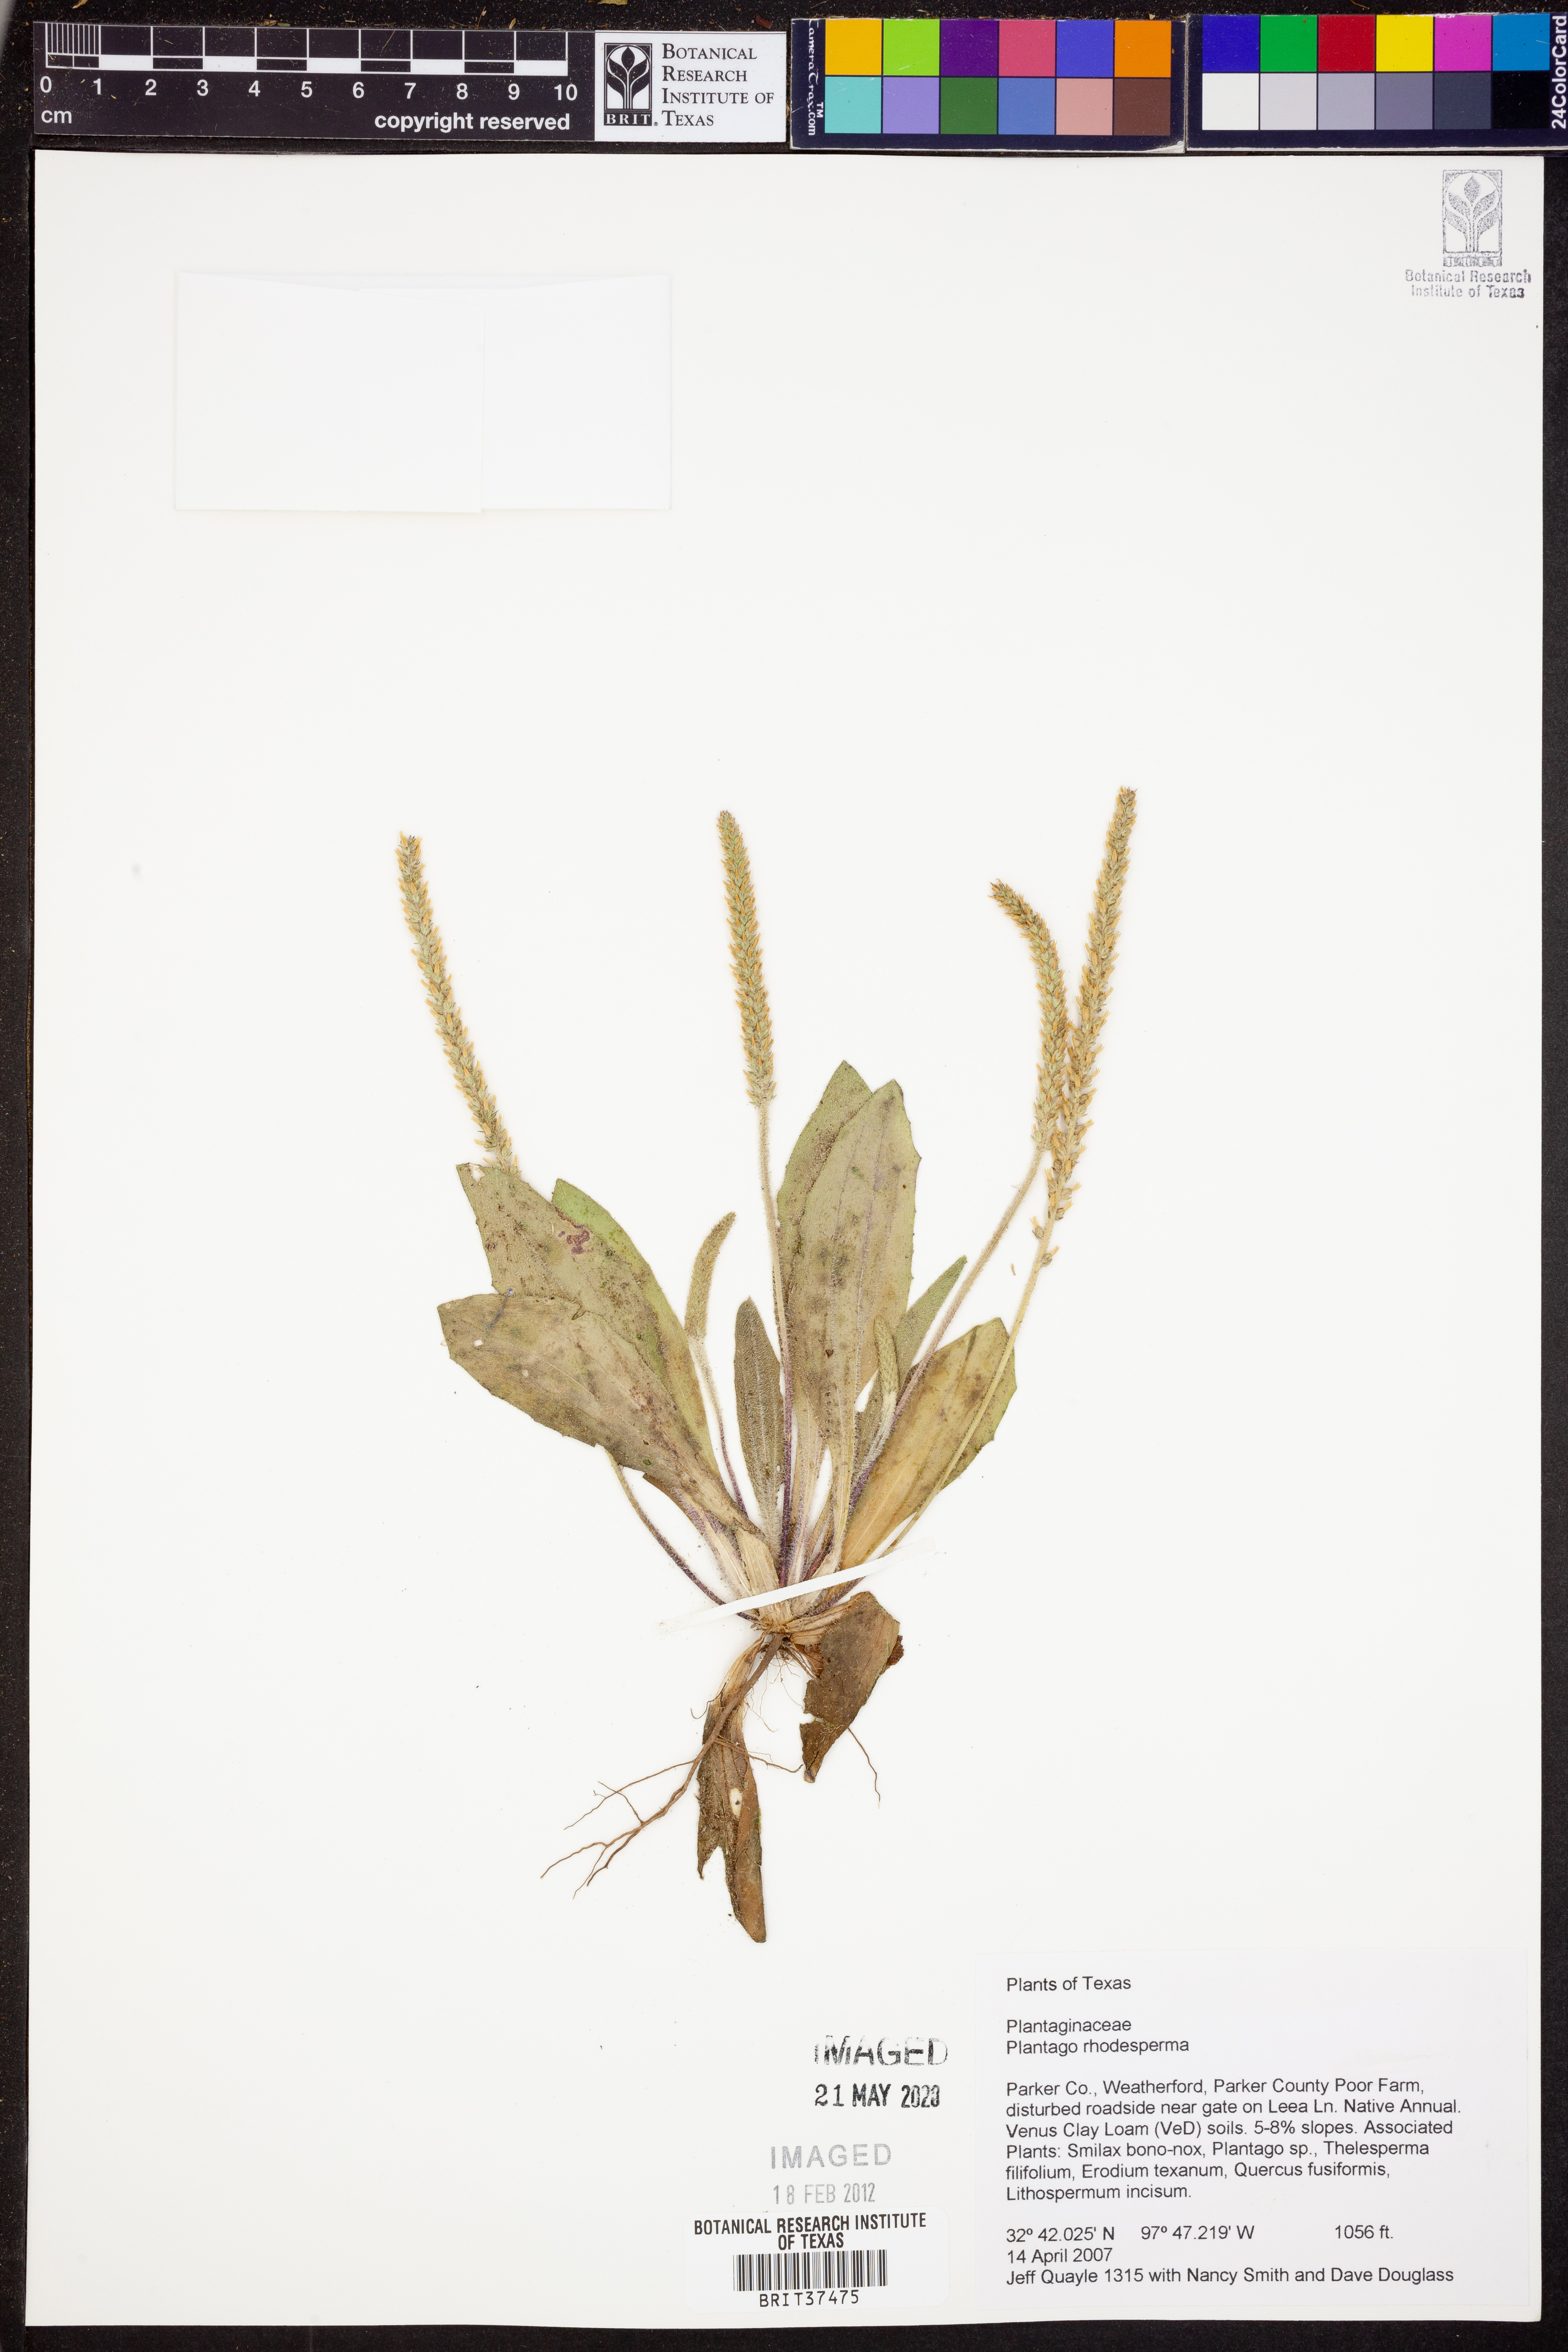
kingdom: Plantae
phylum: Tracheophyta
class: Magnoliopsida
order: Lamiales
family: Plantaginaceae
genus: Plantago
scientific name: Plantago rhodosperma
